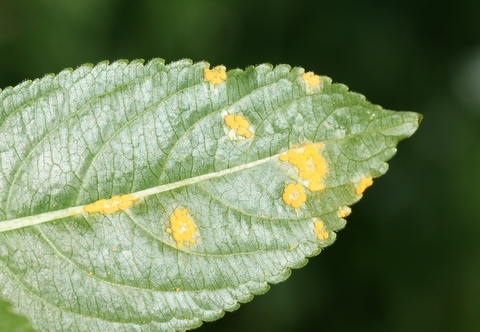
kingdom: Fungi
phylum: Basidiomycota
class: Pucciniomycetes
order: Pucciniales
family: Melampsoraceae
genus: Melampsora
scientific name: Melampsora populnea
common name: poppel-skorperust
